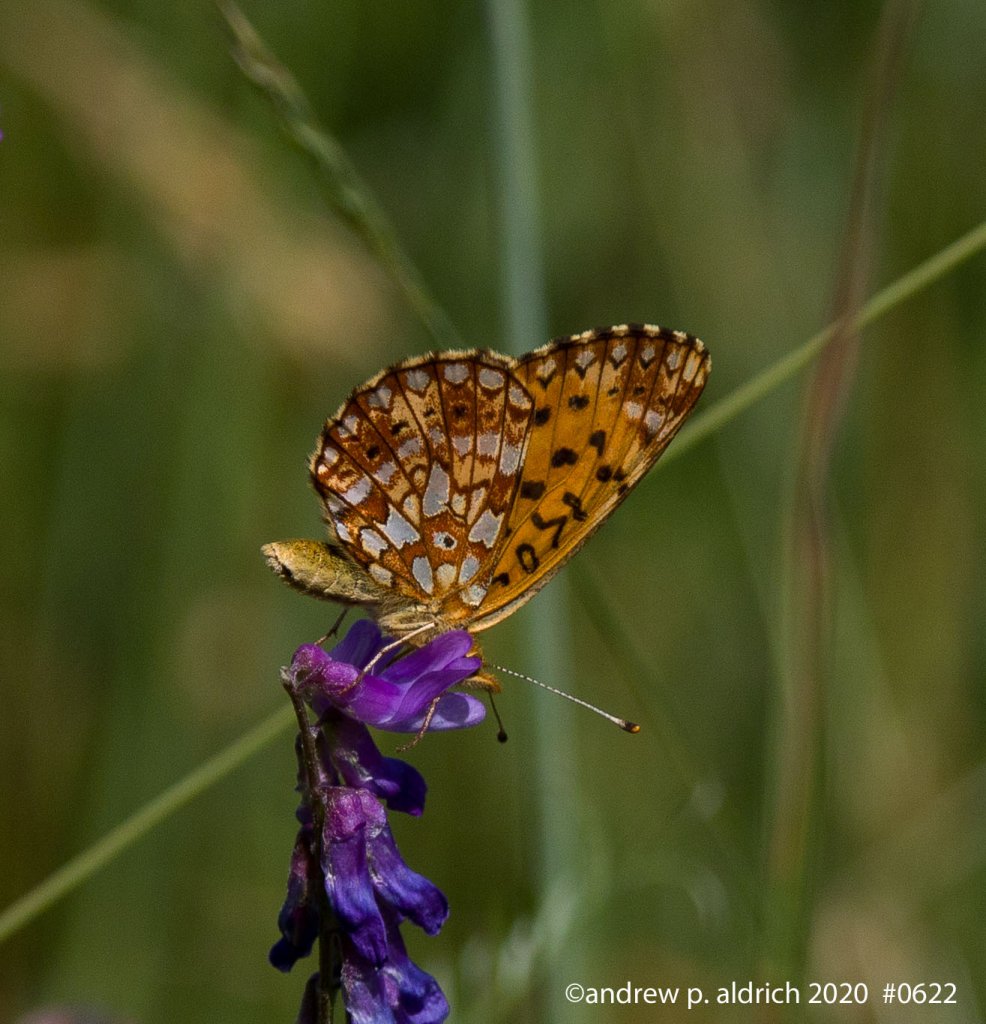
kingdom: Animalia
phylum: Arthropoda
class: Insecta
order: Lepidoptera
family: Nymphalidae
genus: Boloria
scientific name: Boloria selene
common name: Silver-bordered Fritillary
